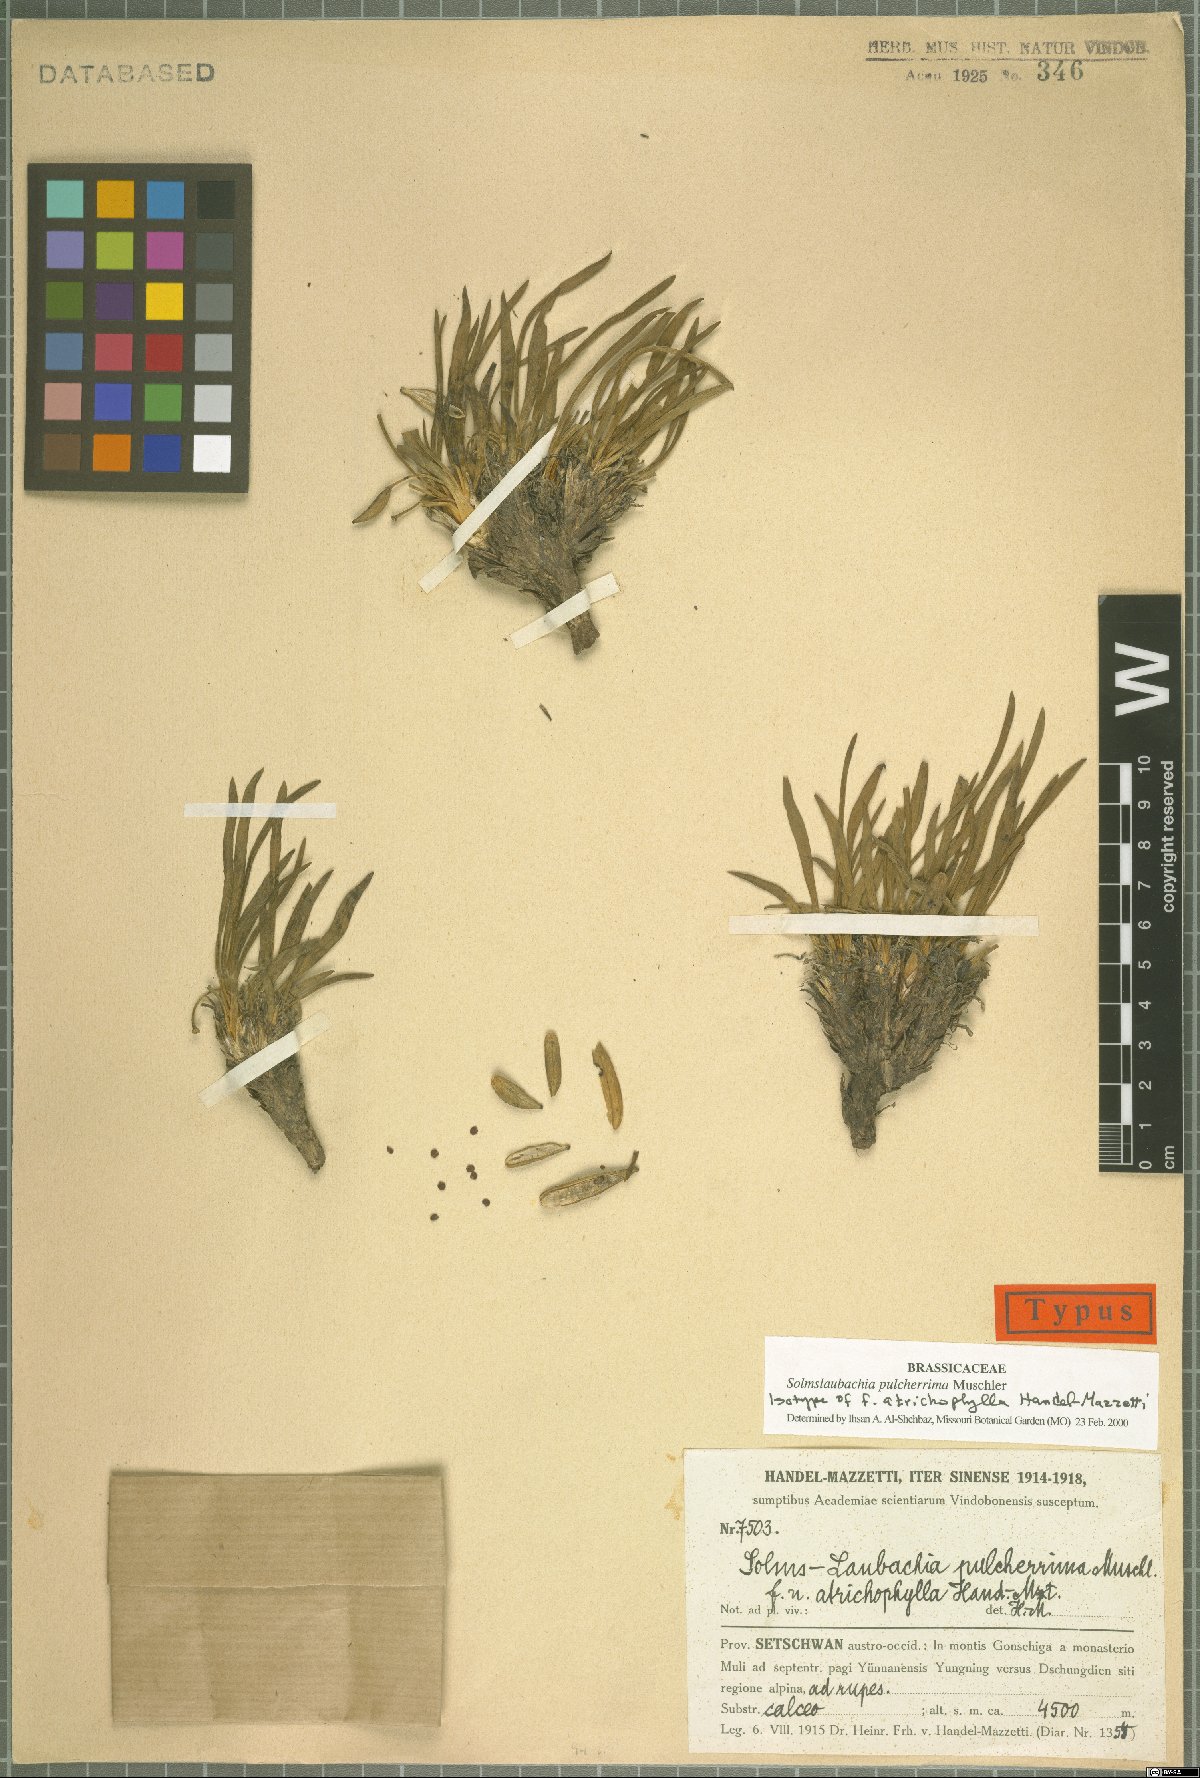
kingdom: Plantae
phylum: Tracheophyta
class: Magnoliopsida
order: Brassicales
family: Brassicaceae
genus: Solms-Laubachia
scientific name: Solms-Laubachia pulcherrima
